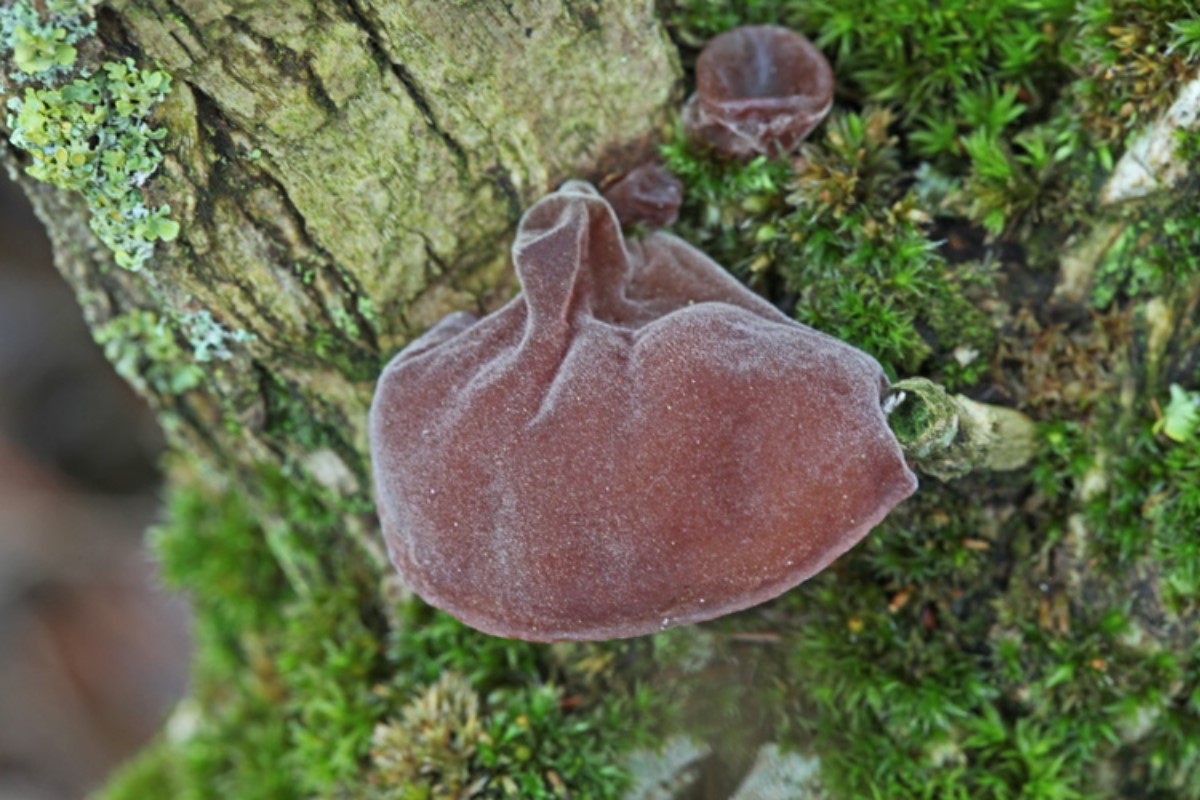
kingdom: Fungi
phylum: Basidiomycota
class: Agaricomycetes
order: Auriculariales
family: Auriculariaceae
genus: Auricularia
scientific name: Auricularia auricula-judae
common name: almindelig judasøre
